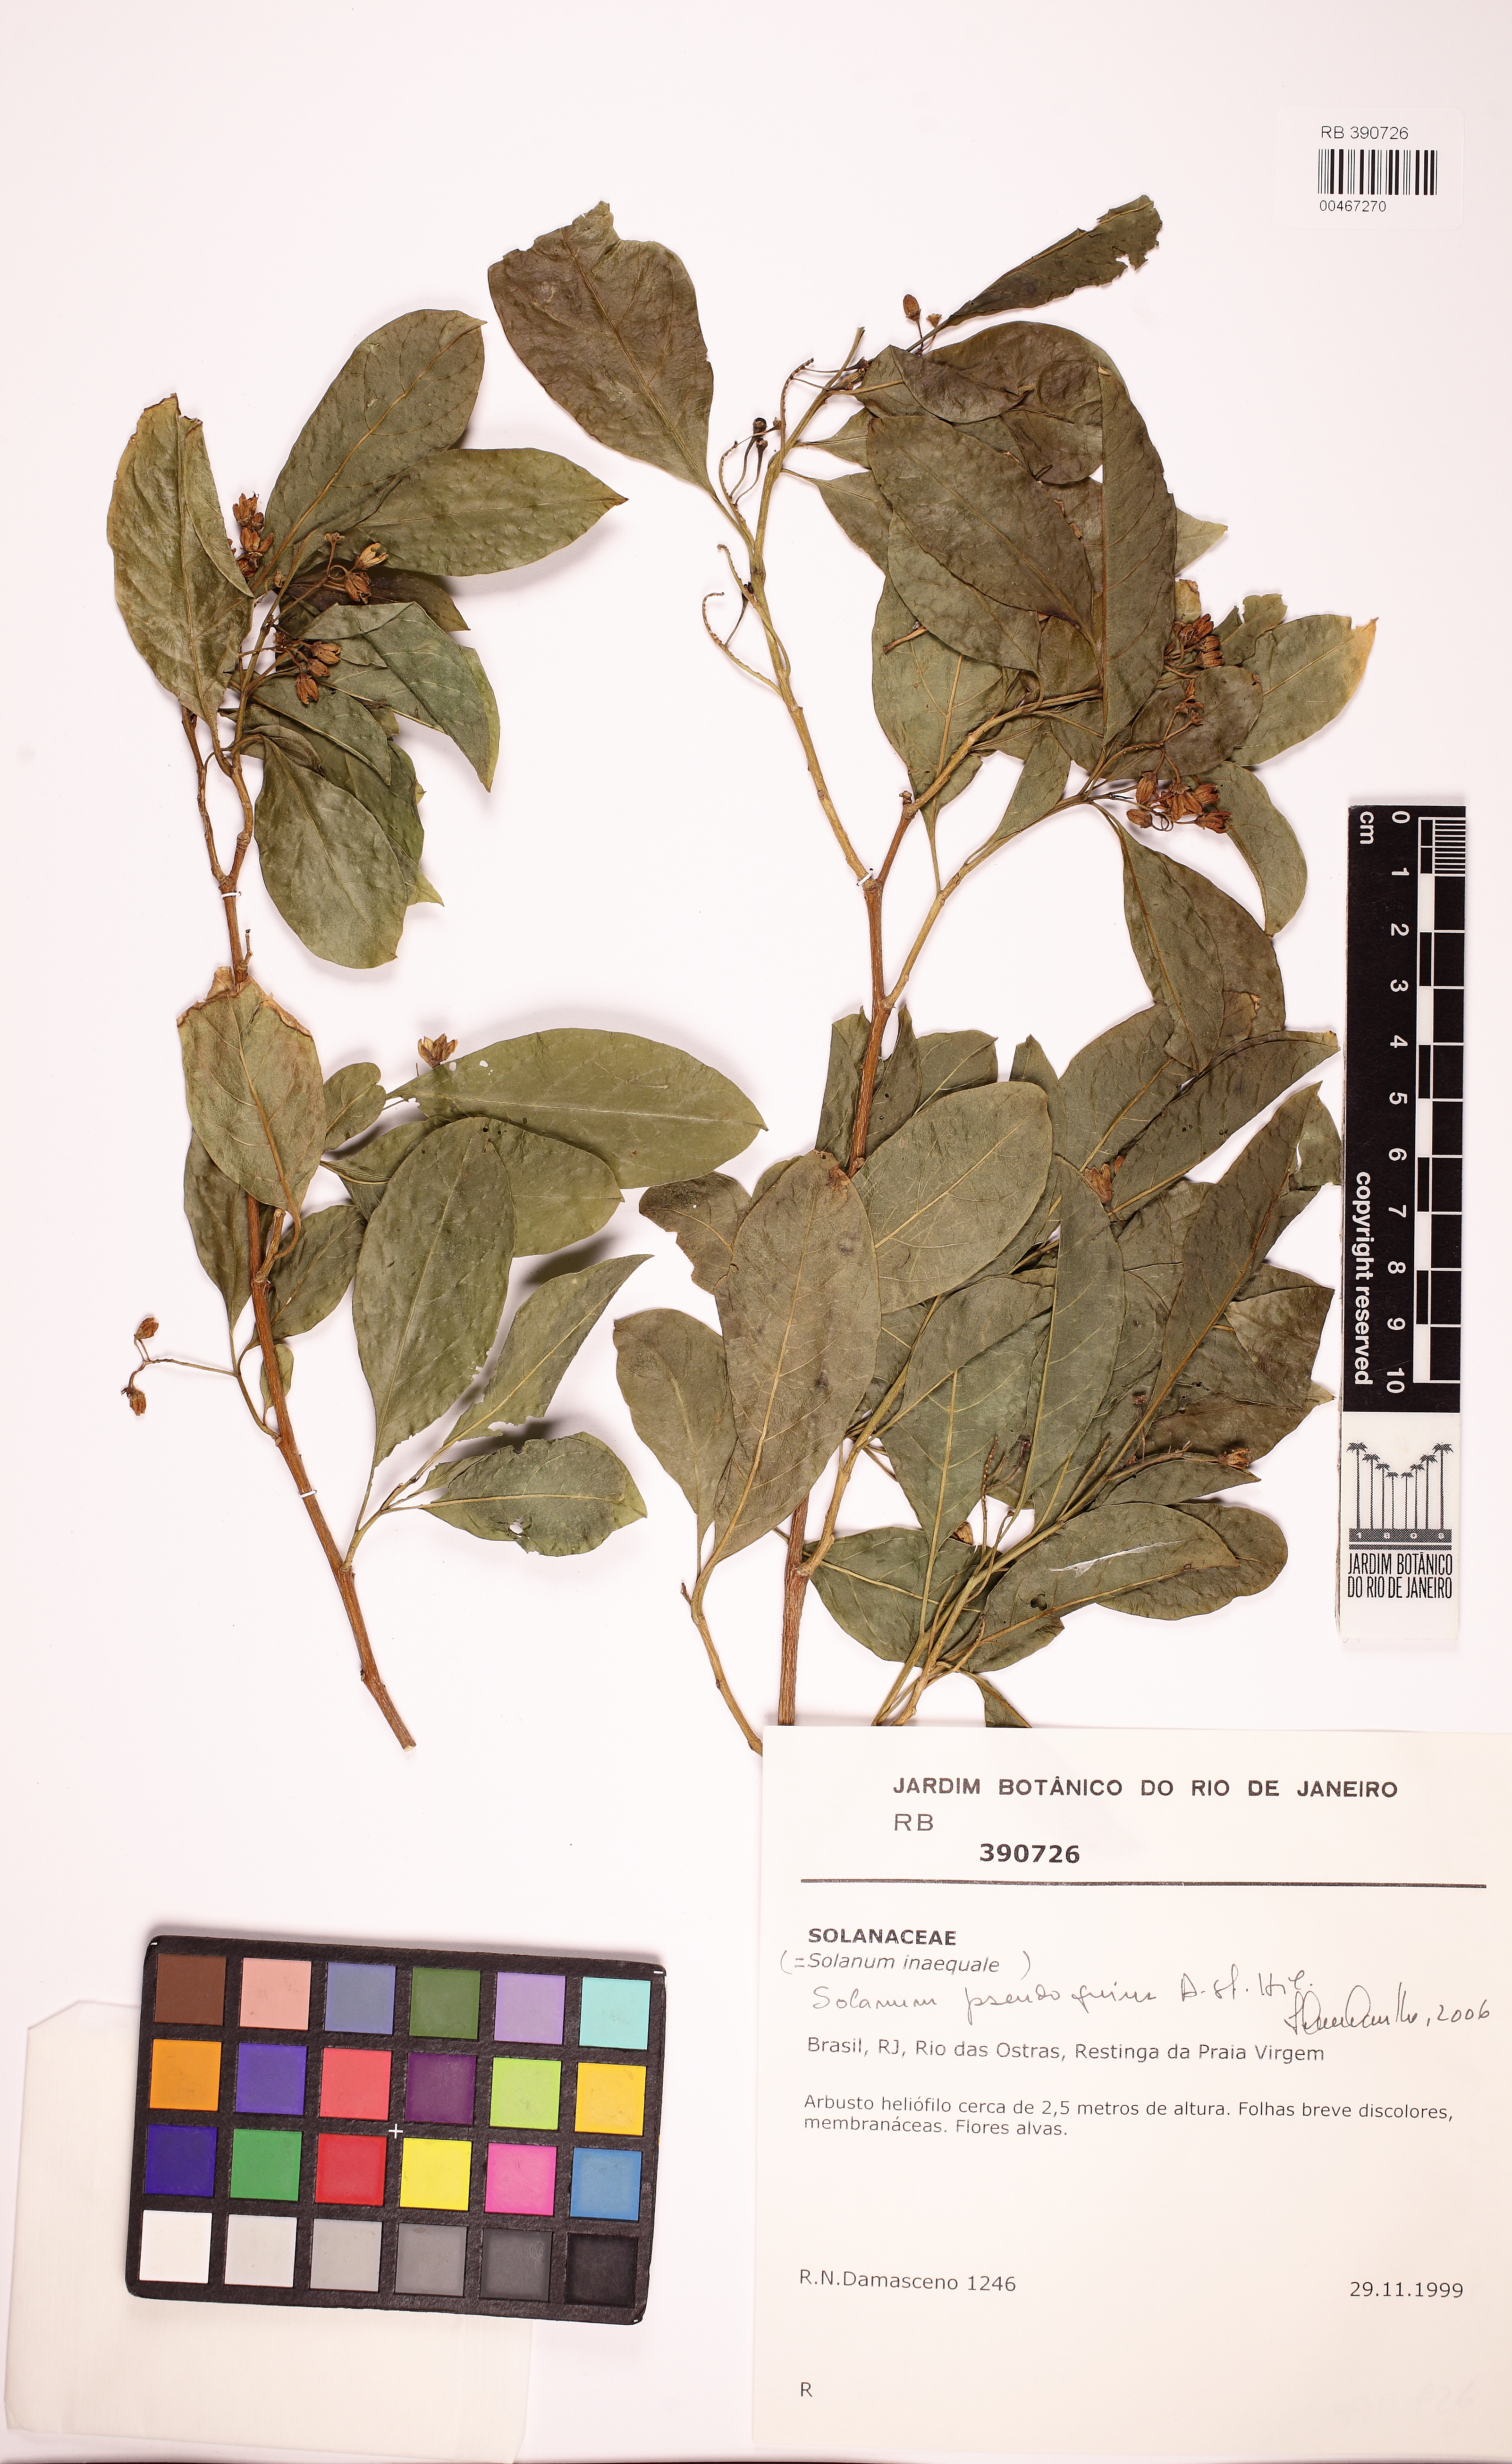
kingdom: Plantae
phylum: Tracheophyta
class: Magnoliopsida
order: Solanales
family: Solanaceae
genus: Solanum
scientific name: Solanum pseudoquina
